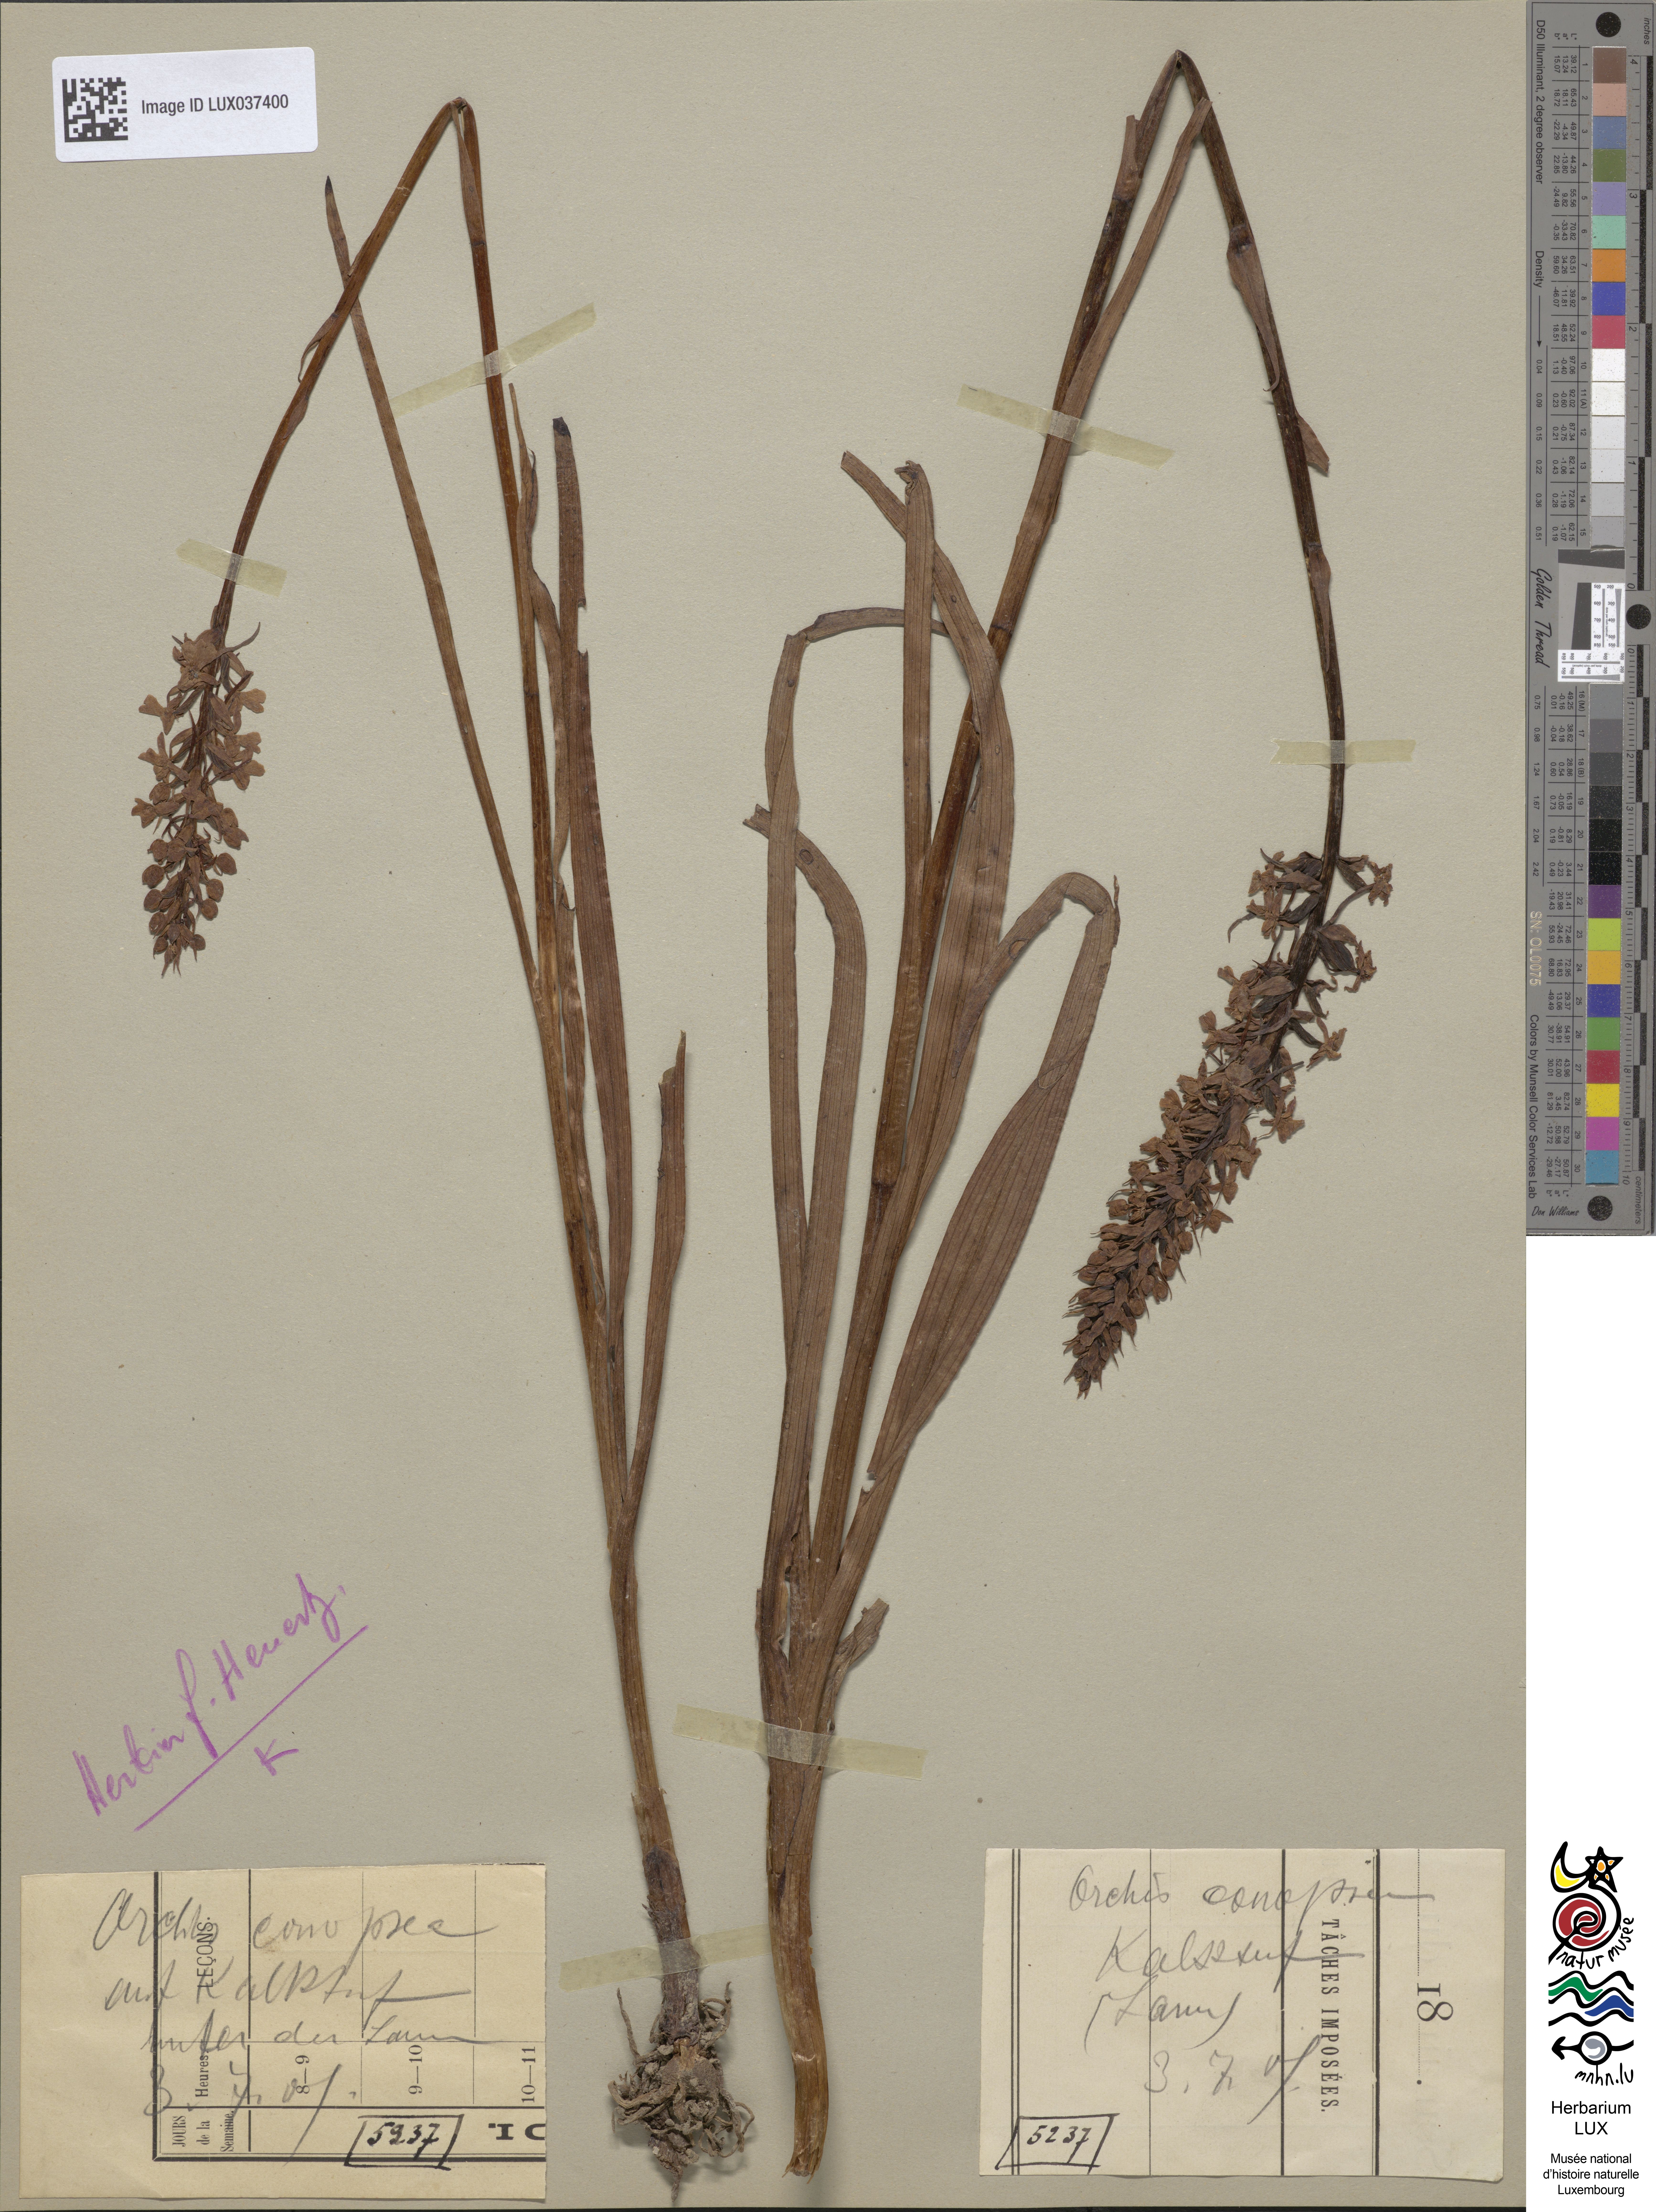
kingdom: Plantae
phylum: Tracheophyta
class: Liliopsida
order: Asparagales
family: Orchidaceae
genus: Gymnadenia
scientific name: Gymnadenia conopsea
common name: Fragrant orchid
